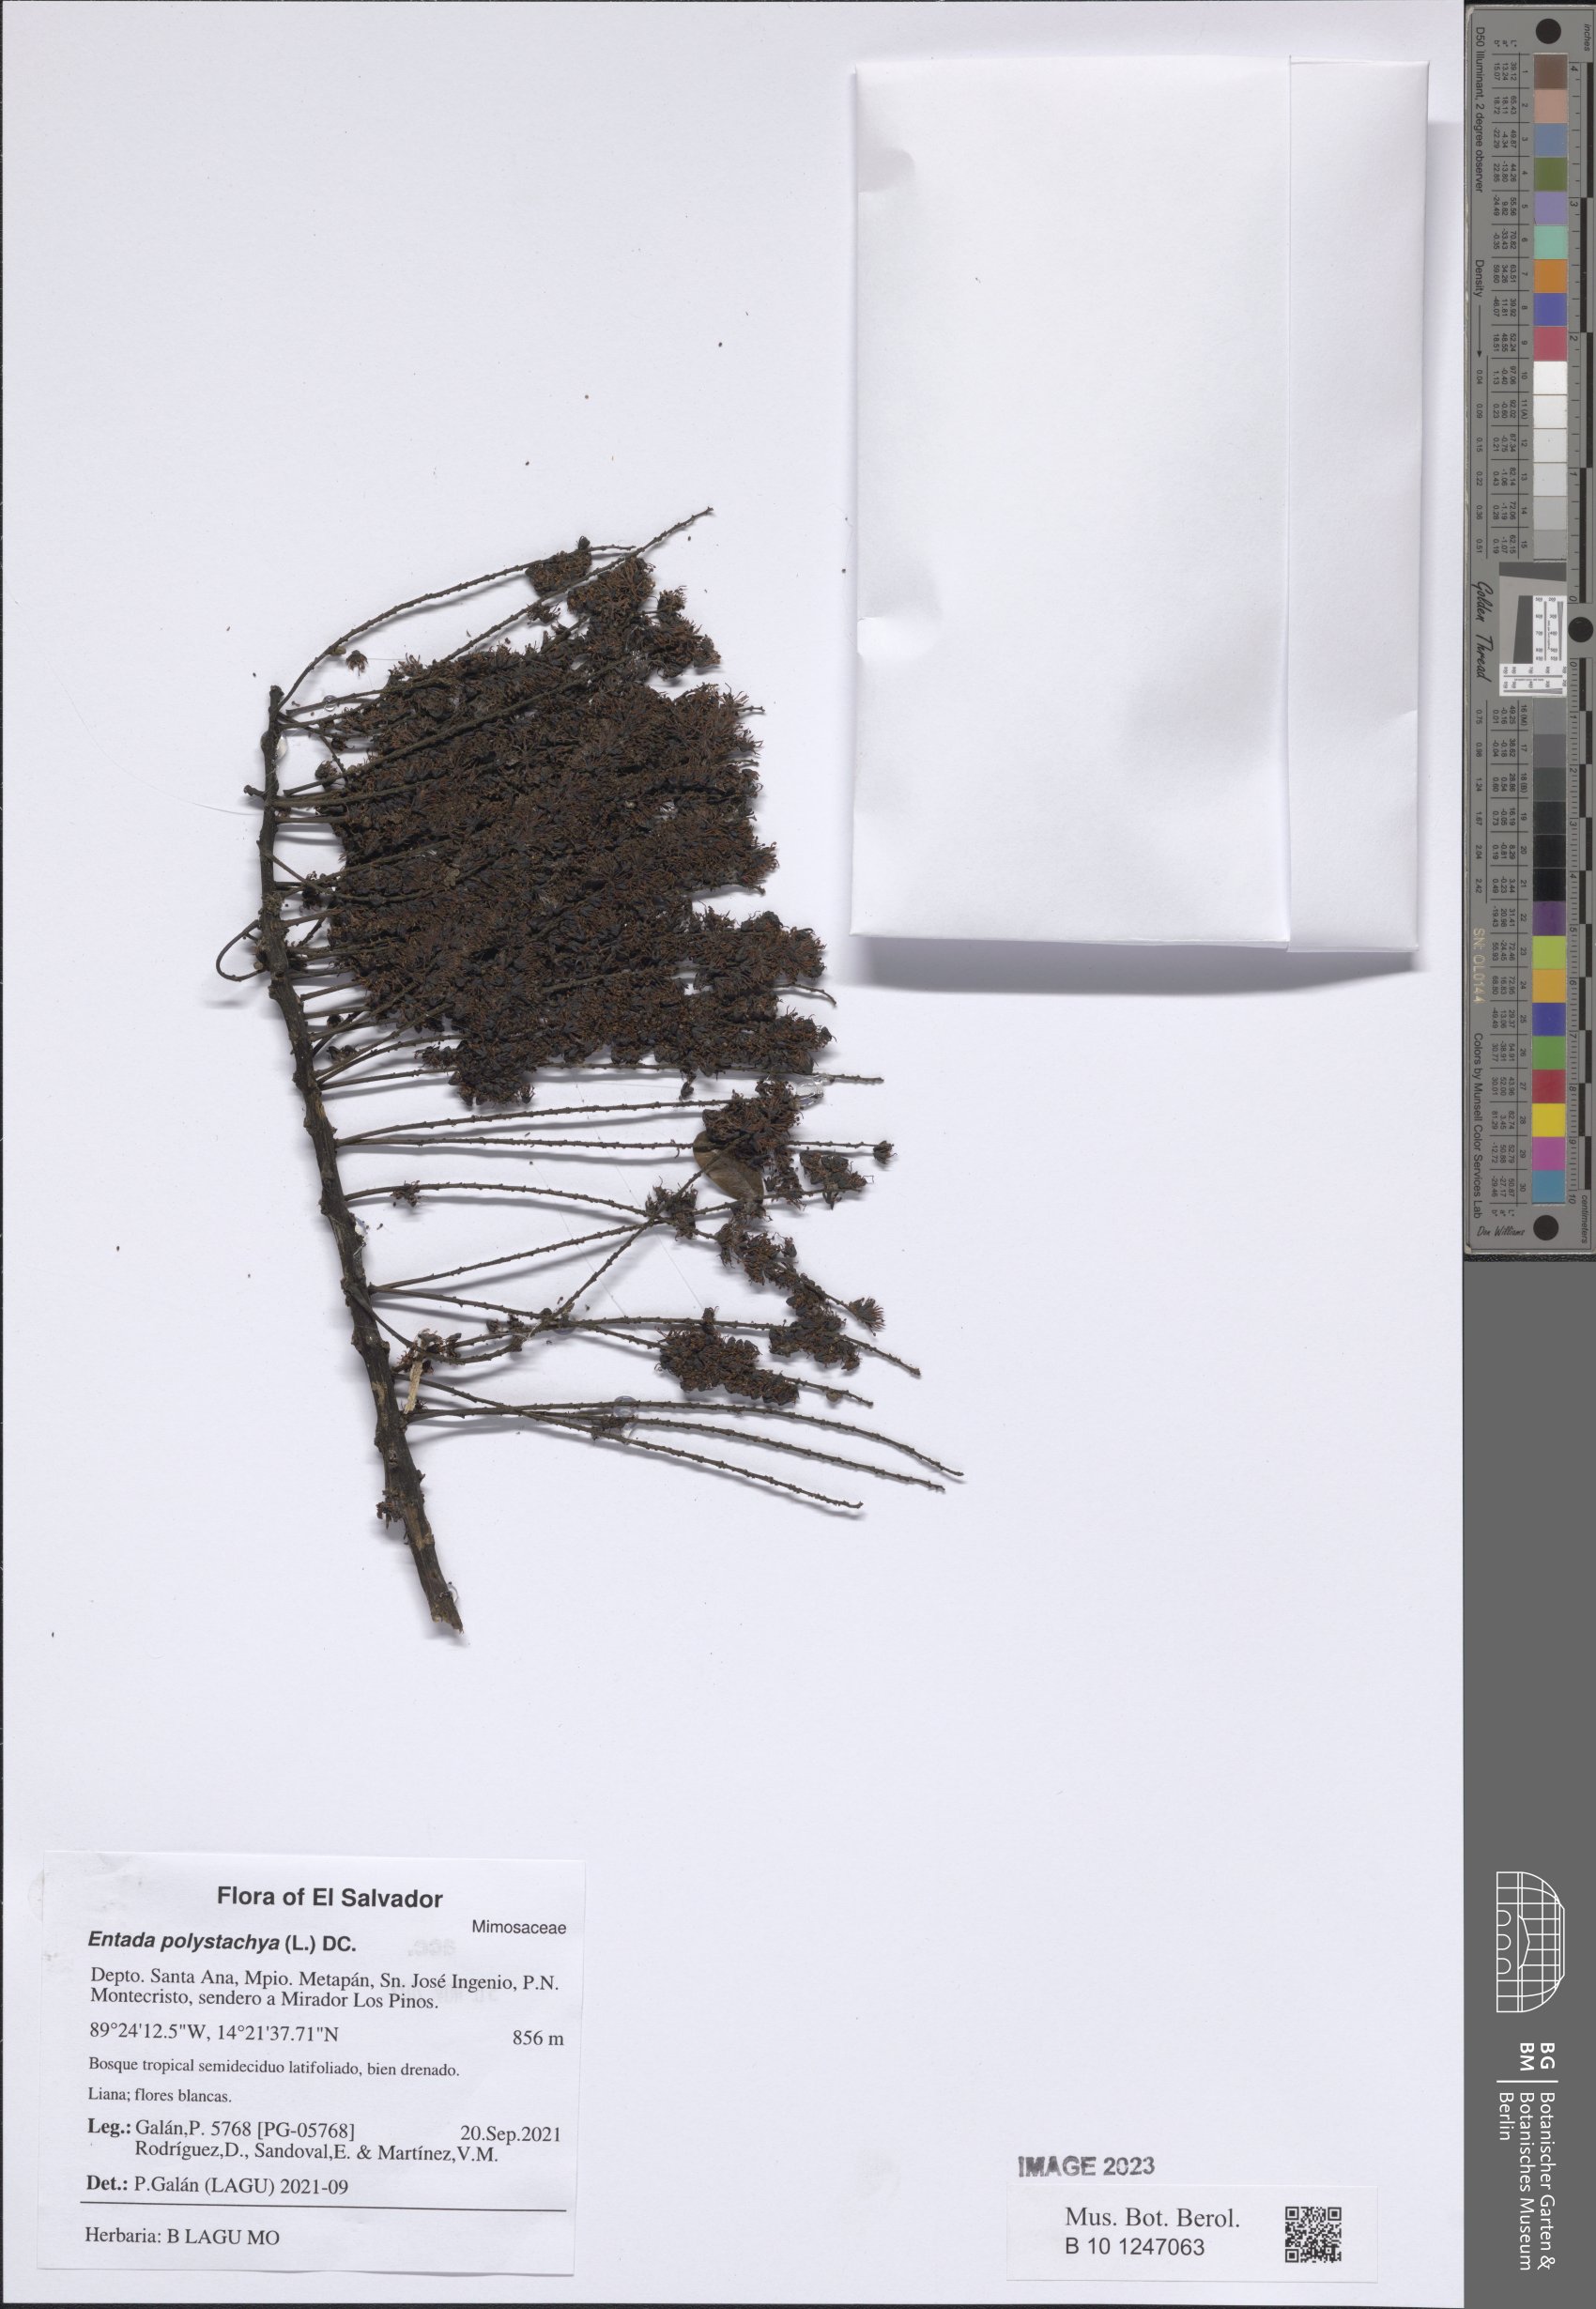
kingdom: Plantae
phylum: Tracheophyta
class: Magnoliopsida
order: Fabales
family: Fabaceae
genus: Entada
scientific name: Entada polystachya
